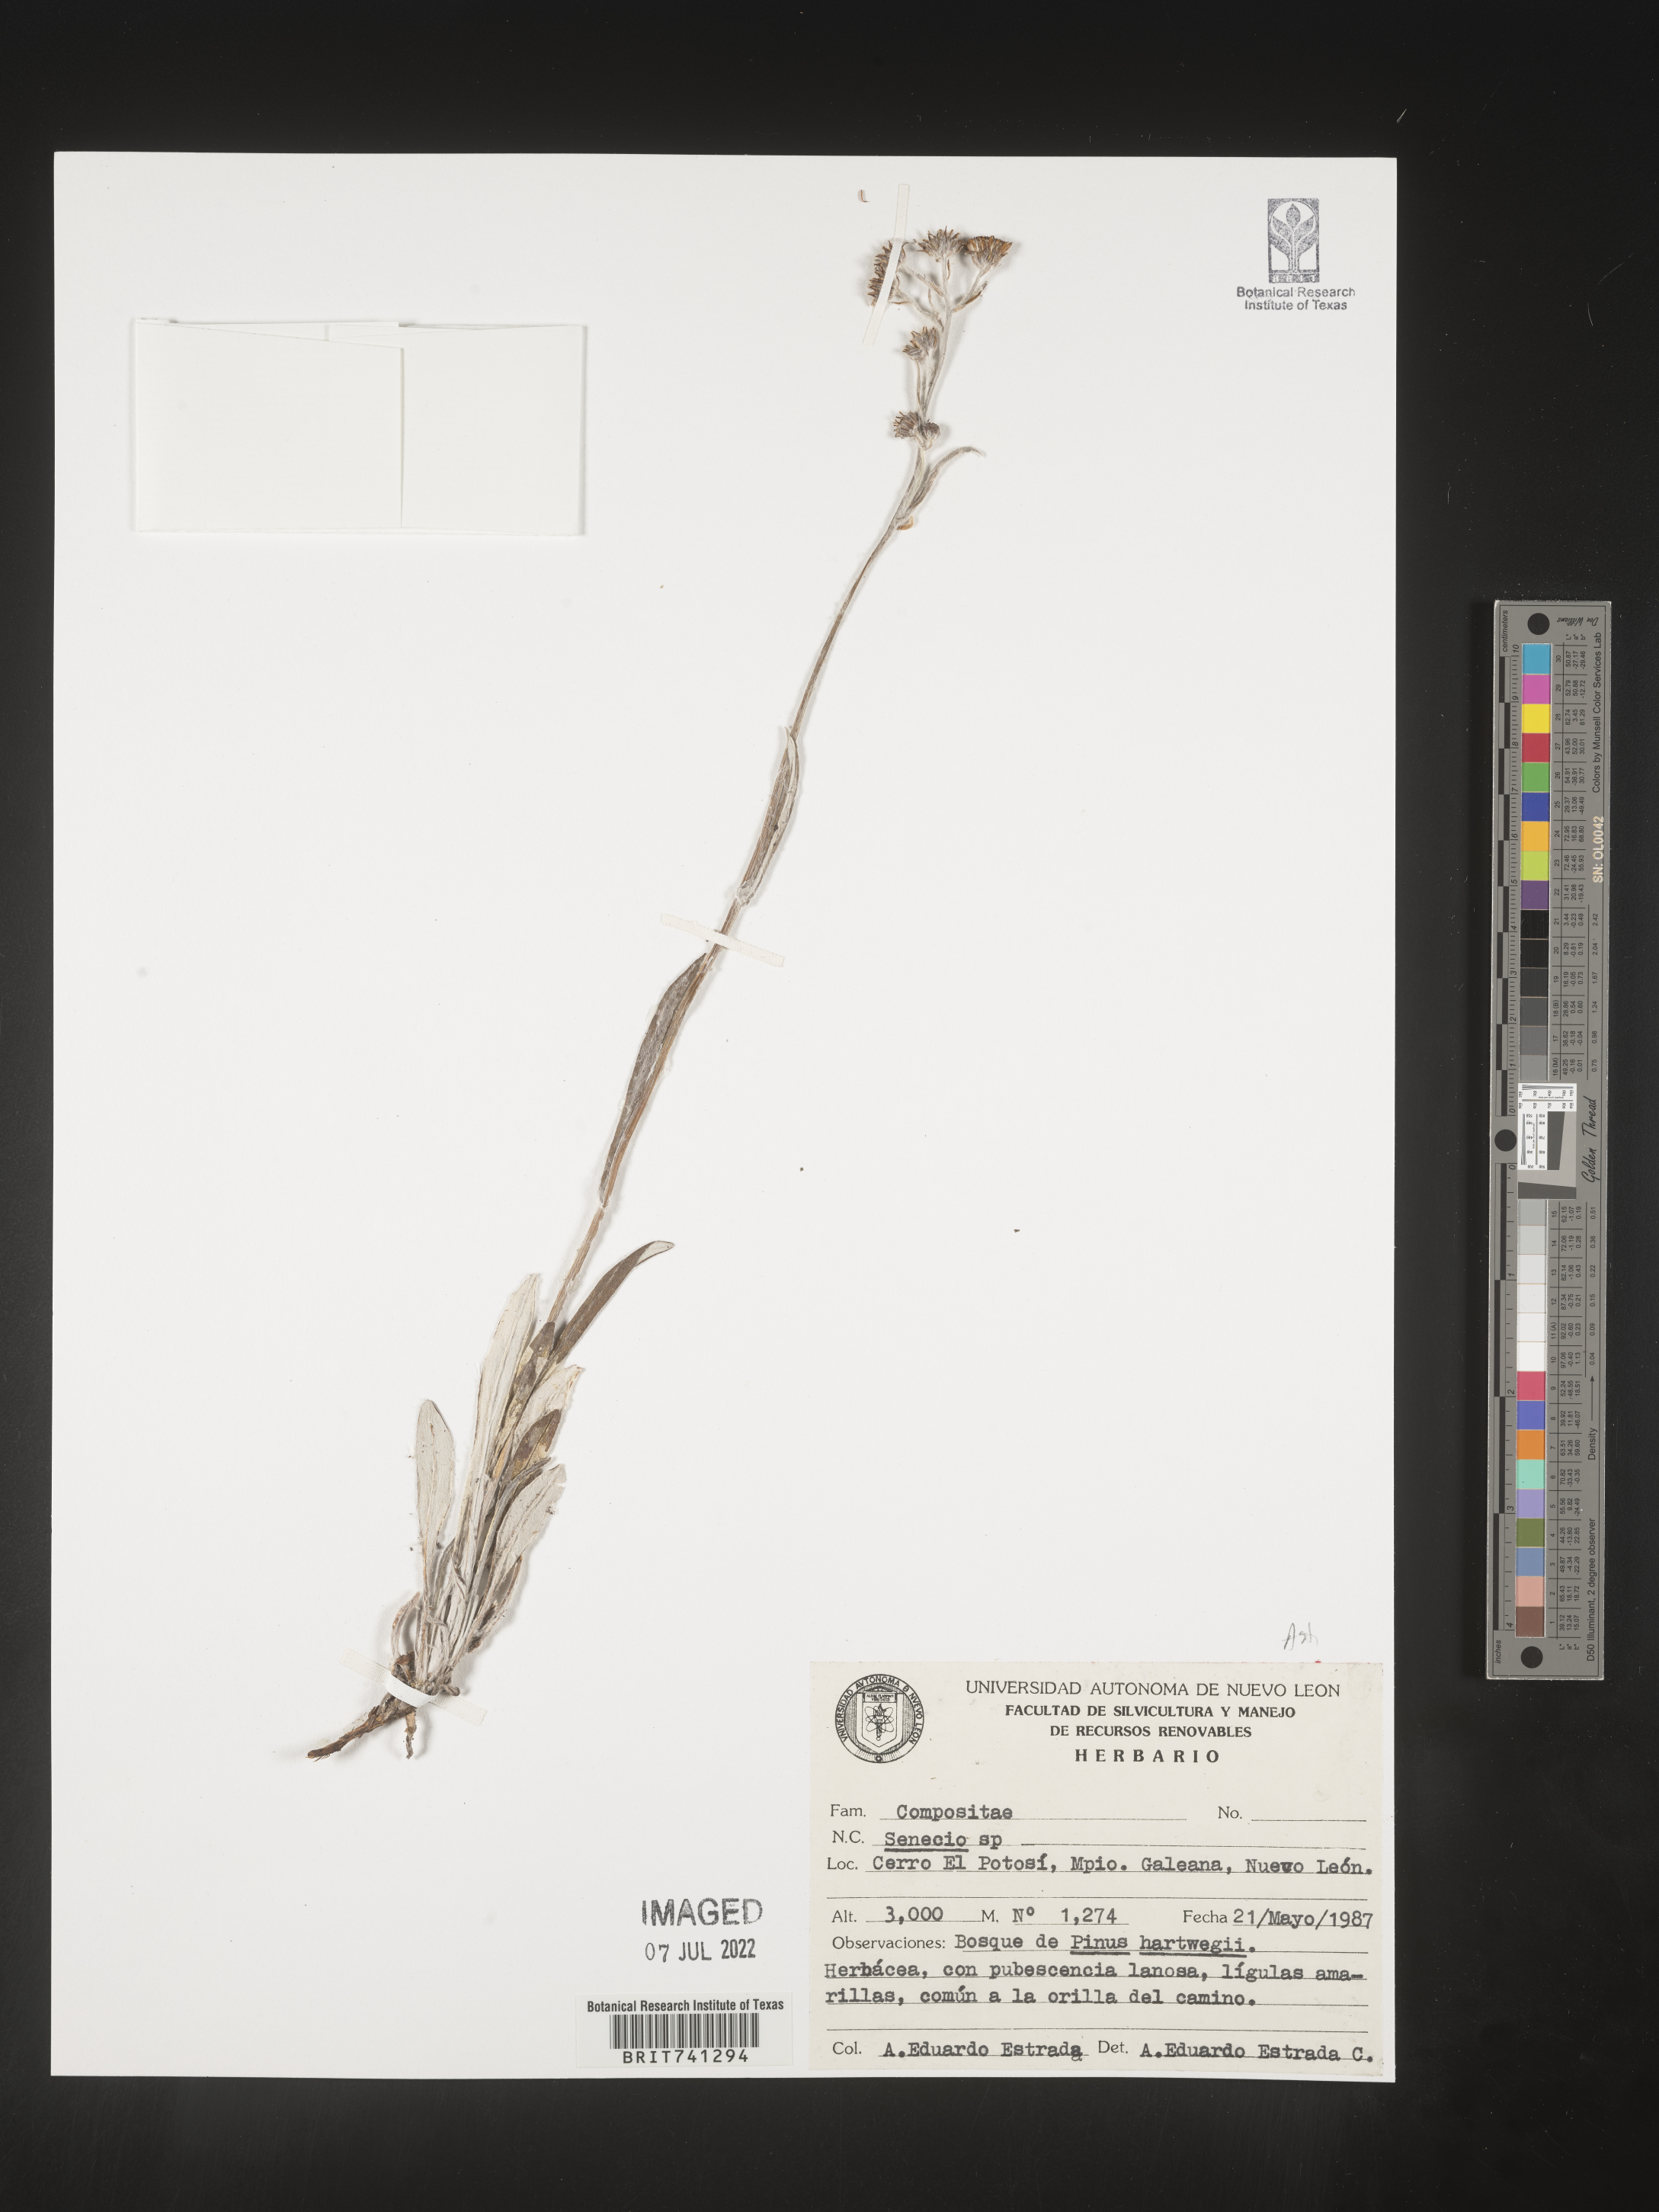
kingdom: Plantae
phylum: Tracheophyta
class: Magnoliopsida
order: Asterales
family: Asteraceae
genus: Senecio
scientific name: Senecio
